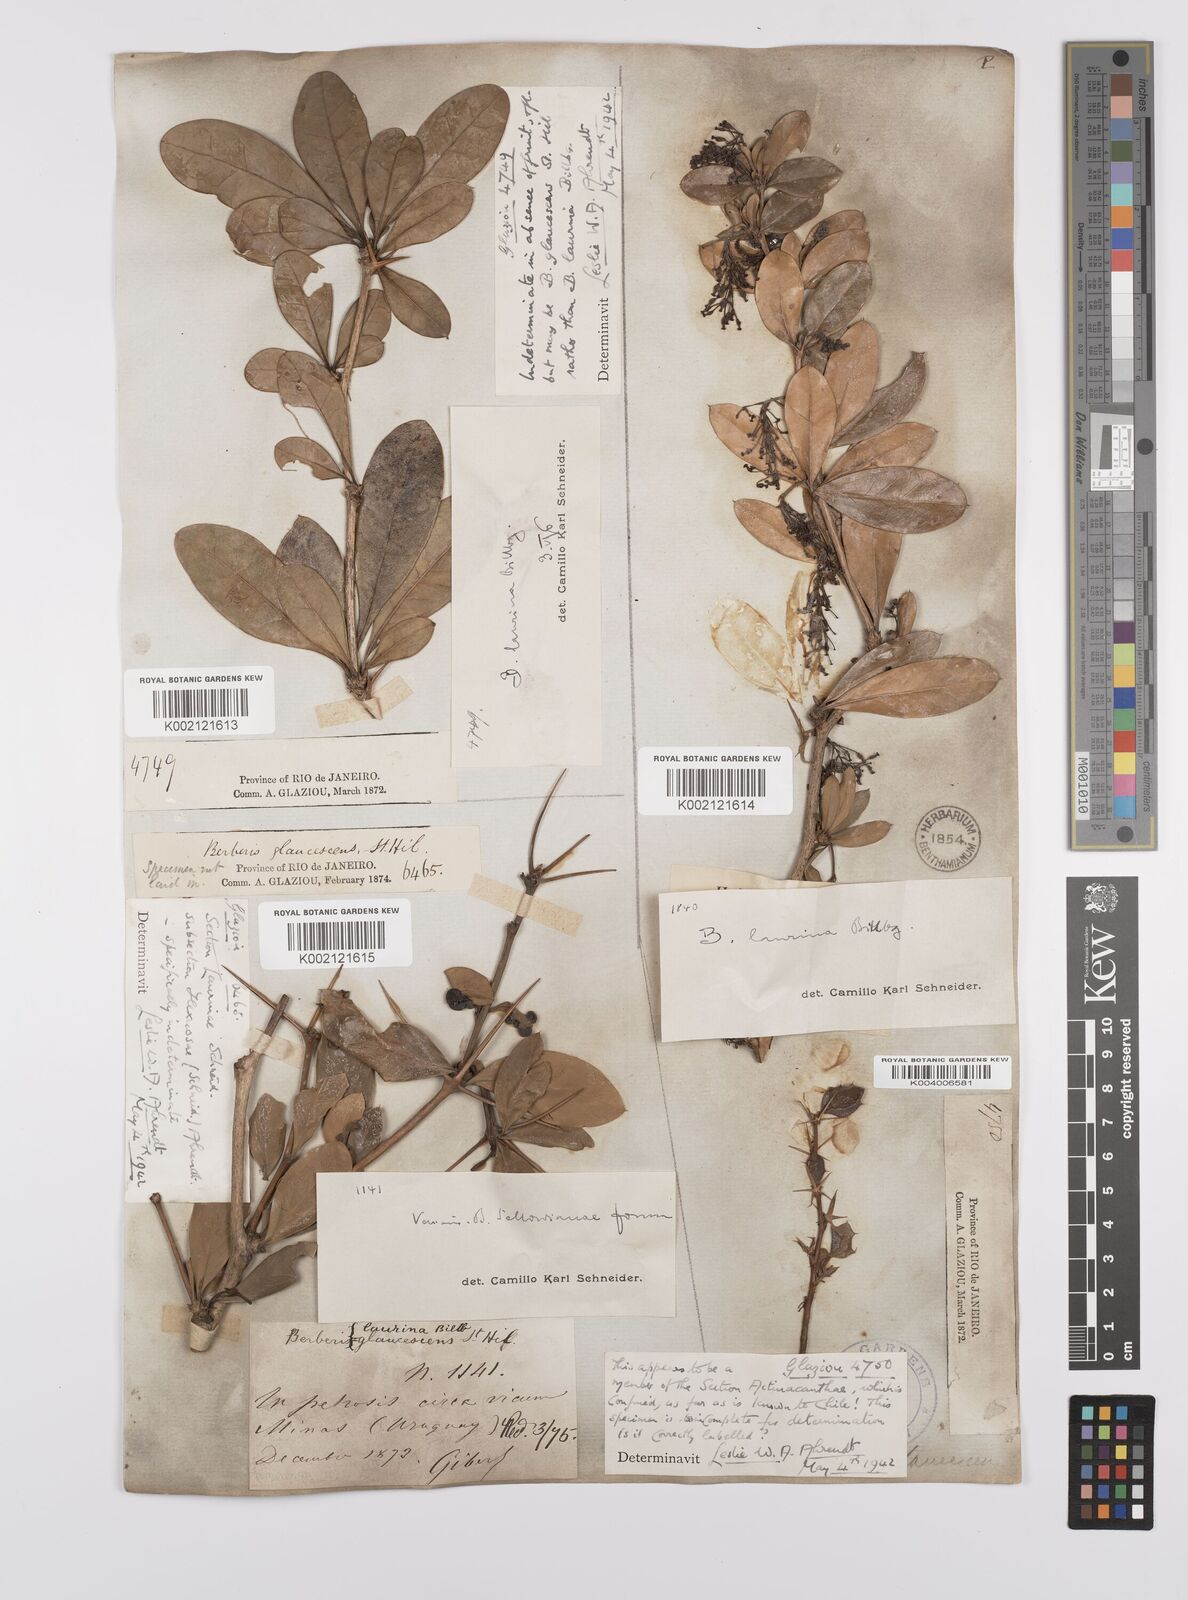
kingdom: Plantae
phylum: Tracheophyta
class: Magnoliopsida
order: Ranunculales
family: Berberidaceae
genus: Berberis
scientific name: Berberis laurina
